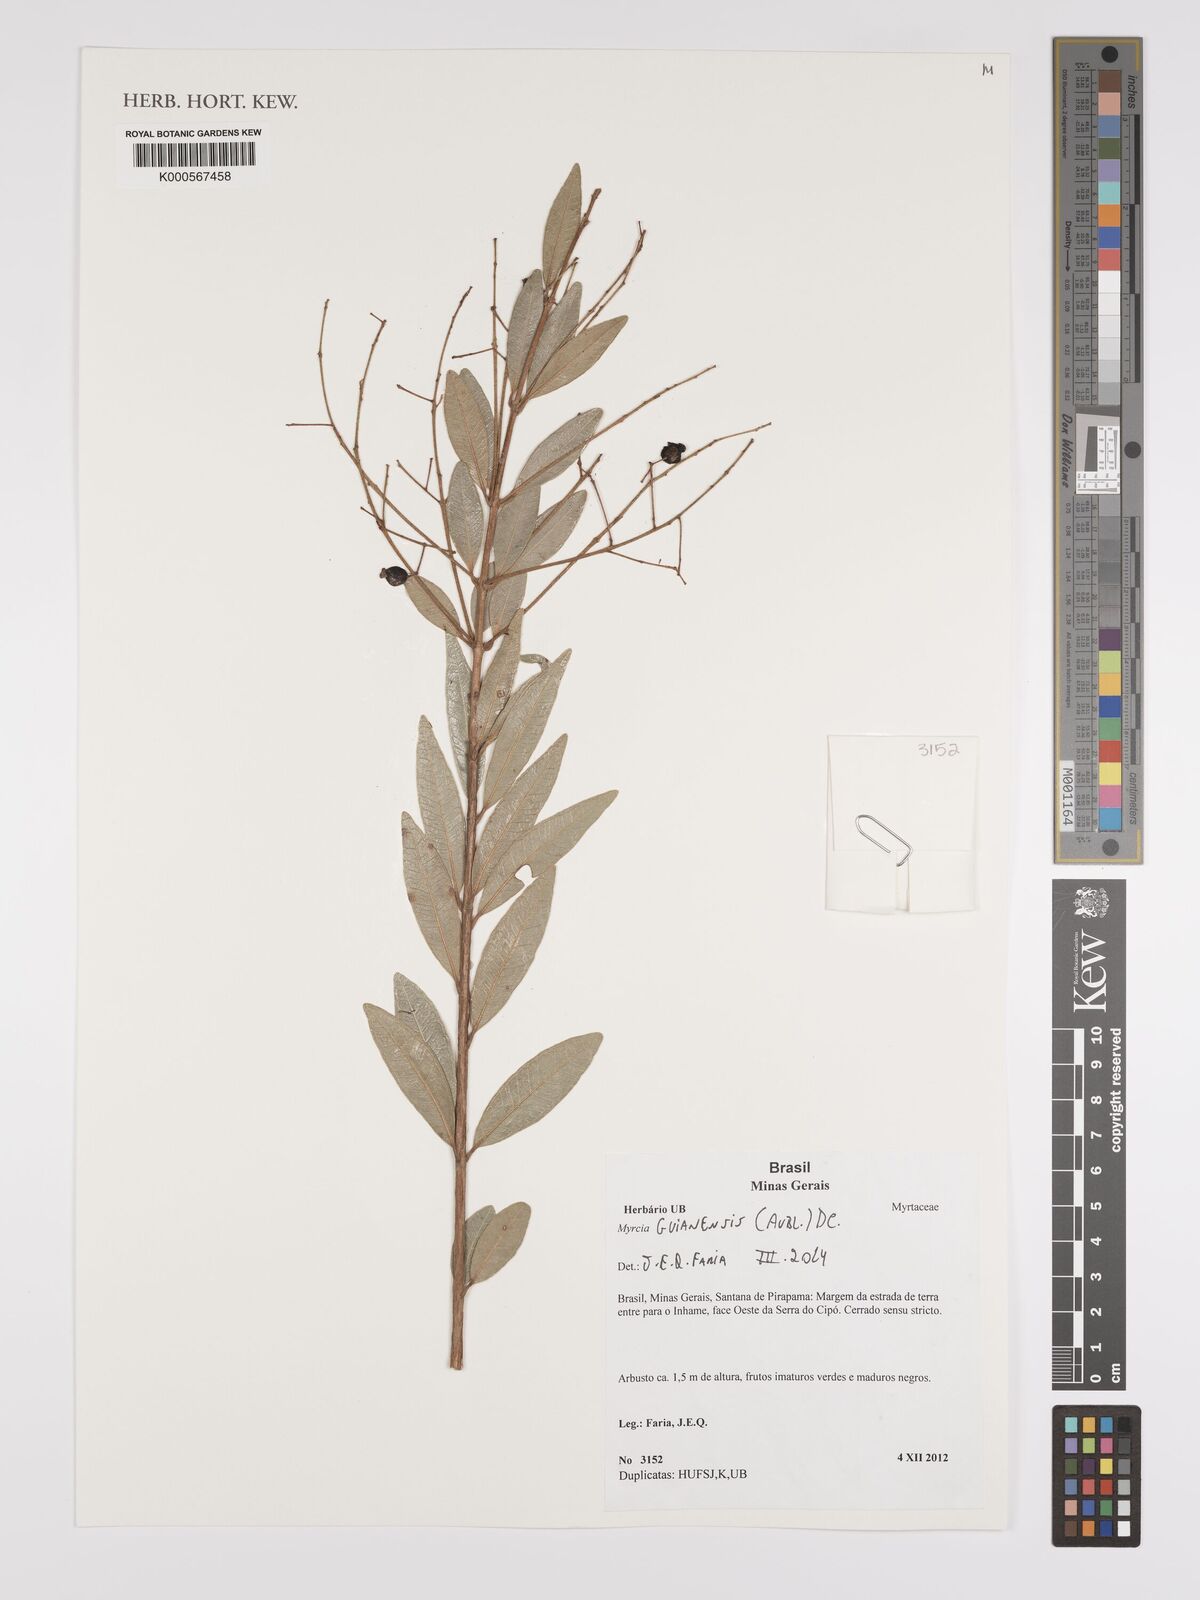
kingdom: Plantae
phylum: Tracheophyta
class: Magnoliopsida
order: Myrtales
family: Myrtaceae
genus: Myrcia
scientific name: Myrcia guianensis
